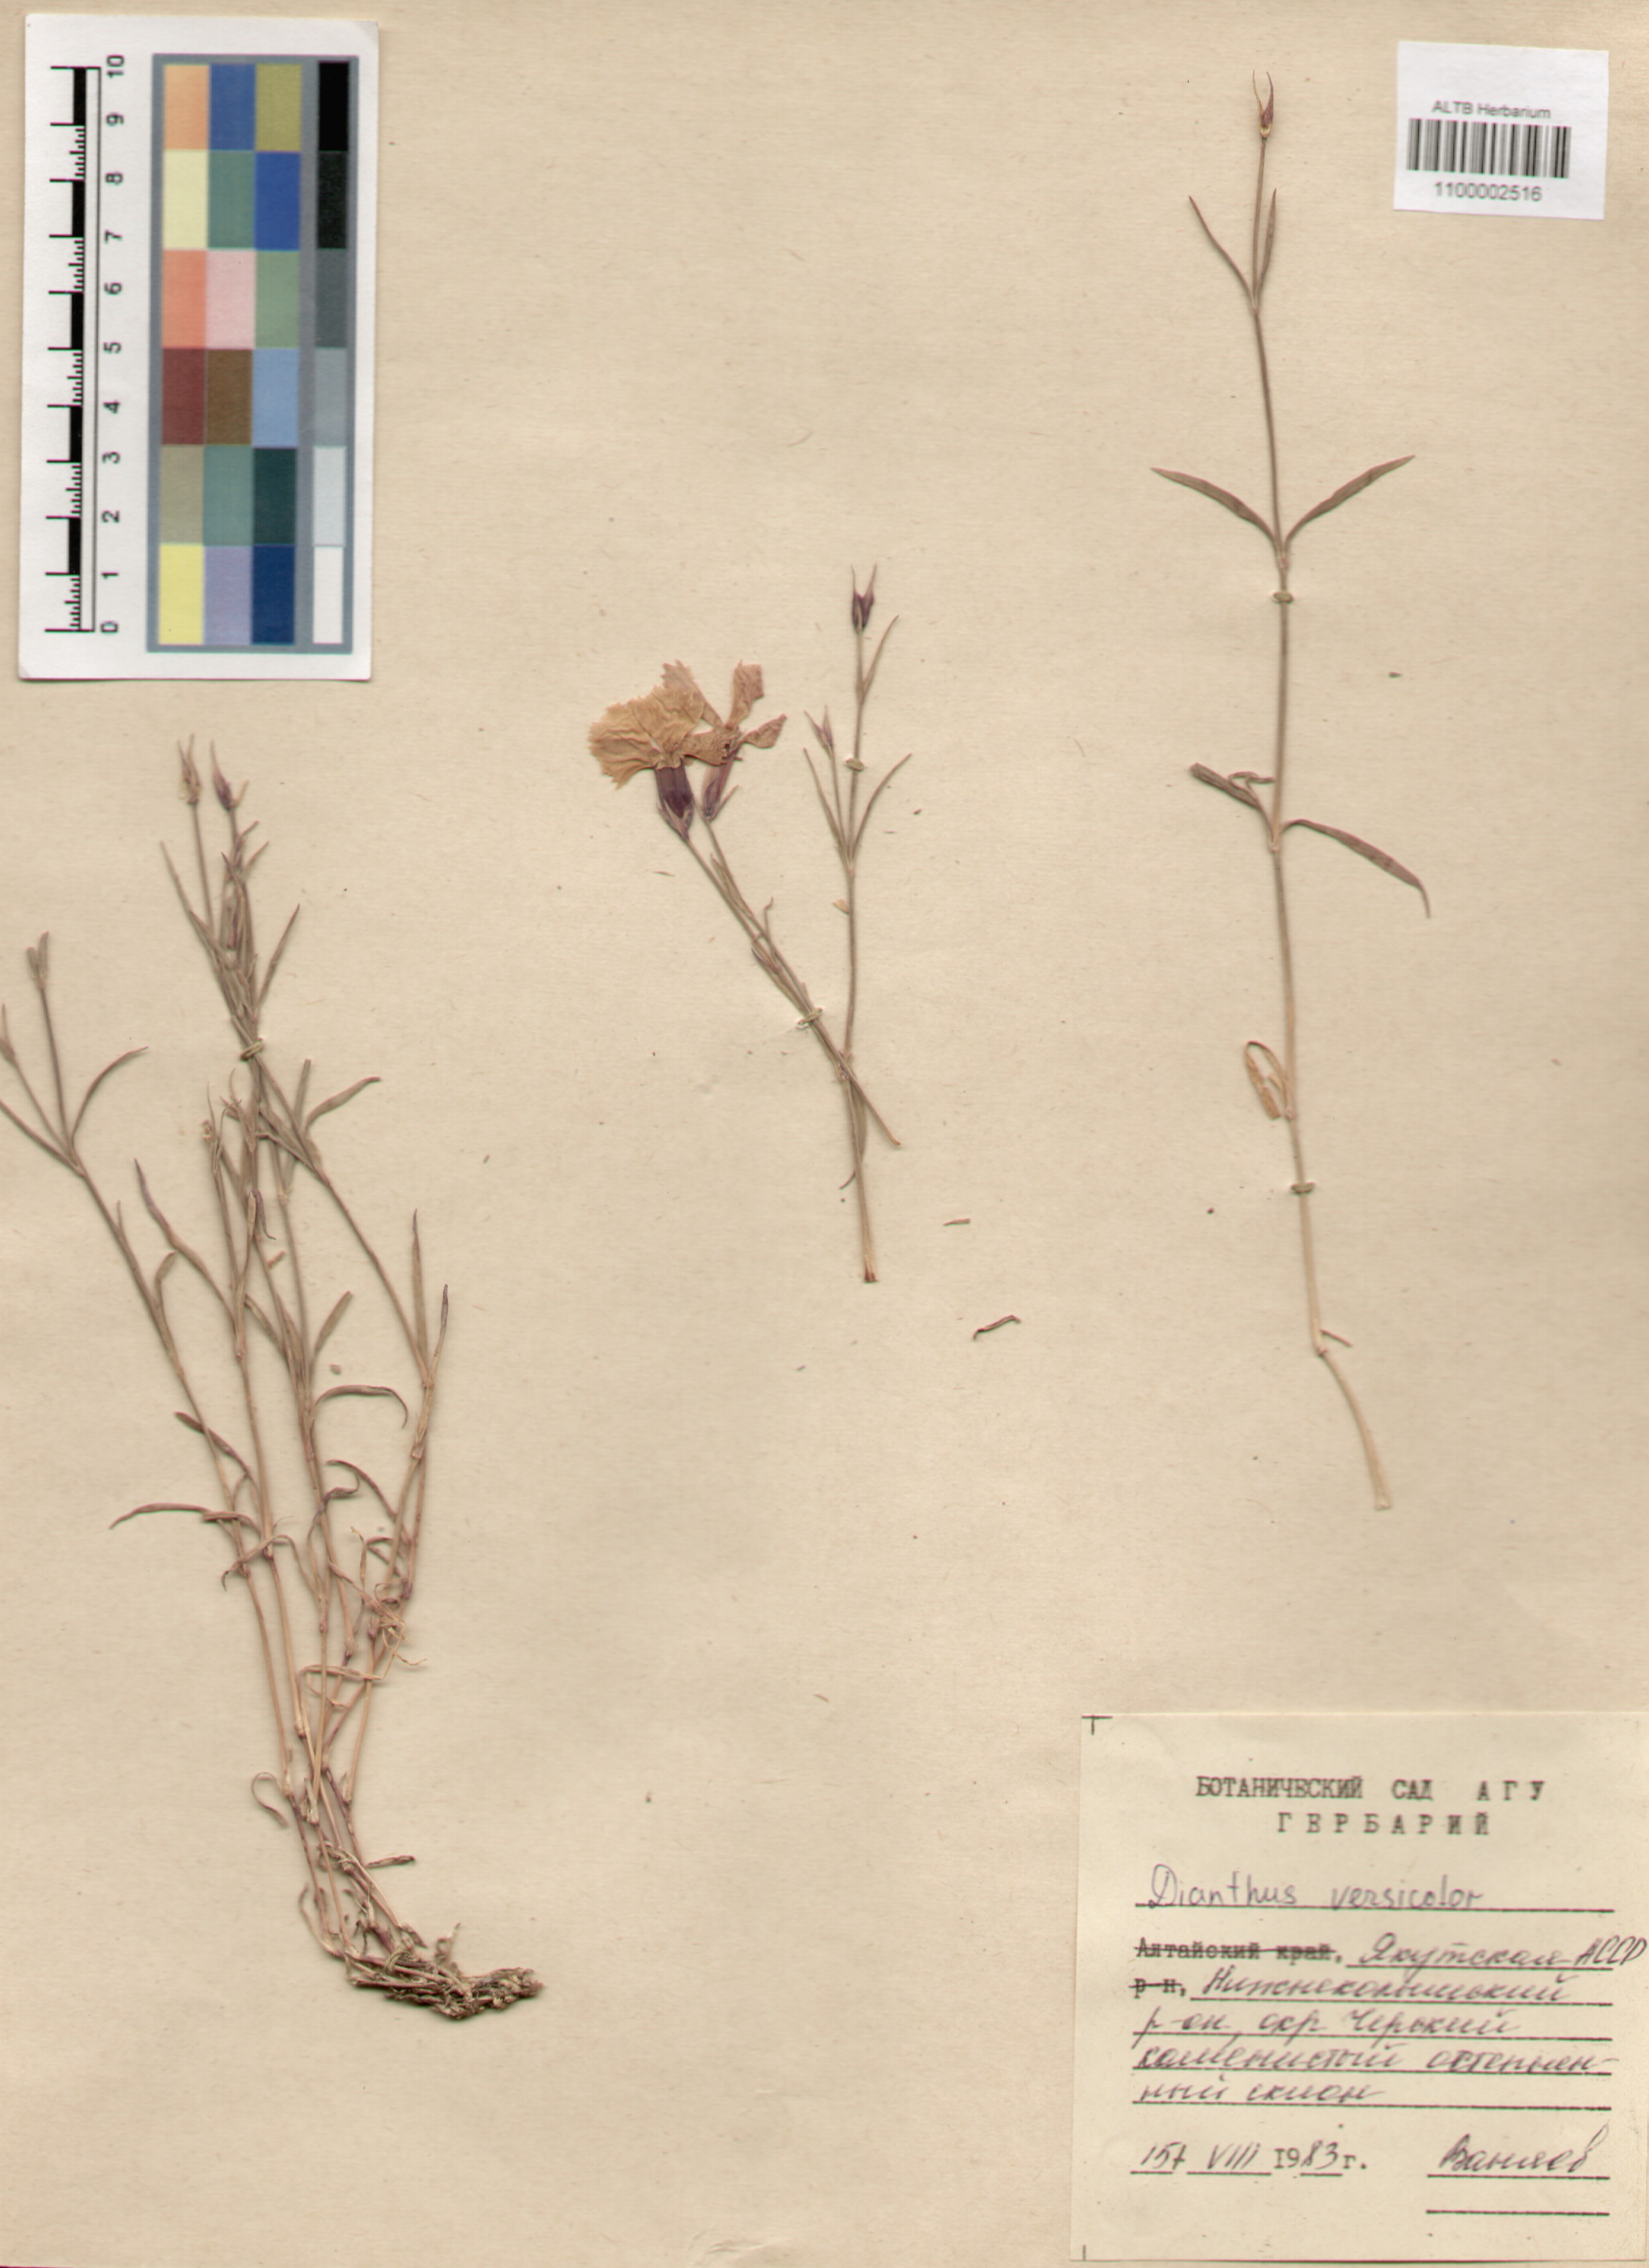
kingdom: Plantae
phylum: Tracheophyta
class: Magnoliopsida
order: Caryophyllales
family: Caryophyllaceae
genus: Dianthus
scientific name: Dianthus chinensis
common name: Rainbow pink
